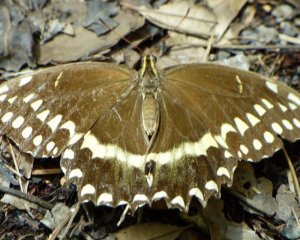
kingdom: Animalia
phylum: Arthropoda
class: Insecta
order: Lepidoptera
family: Papilionidae
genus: Pterourus
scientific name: Pterourus palamedes
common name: Palamedes Swallowtail
